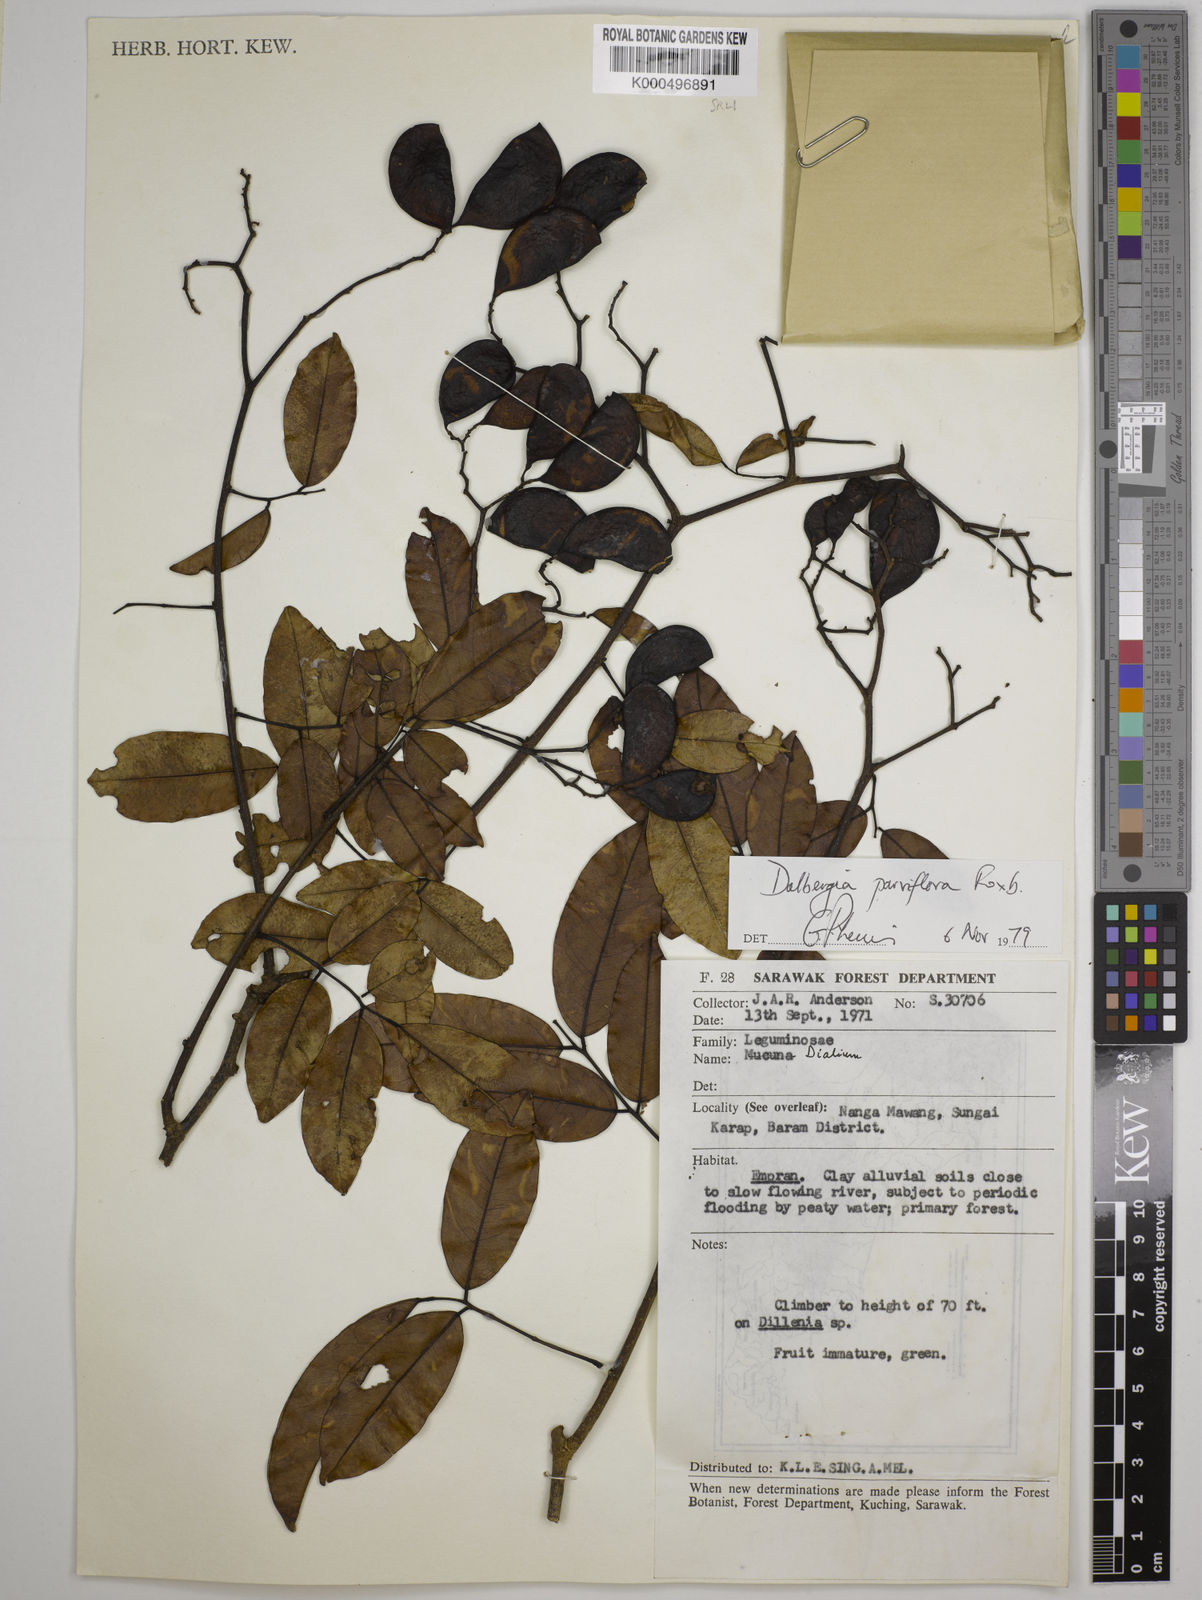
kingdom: Plantae
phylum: Tracheophyta
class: Magnoliopsida
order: Fabales
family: Fabaceae
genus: Dalbergia
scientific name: Dalbergia parviflora
